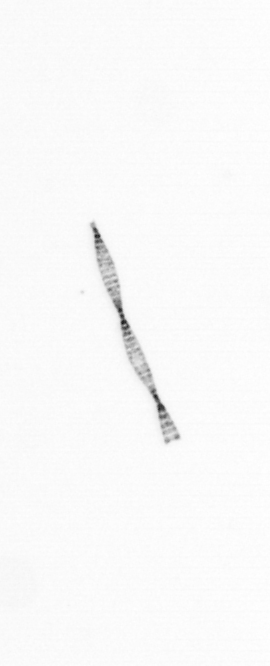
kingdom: Chromista
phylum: Ochrophyta
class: Bacillariophyceae
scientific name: Bacillariophyceae
